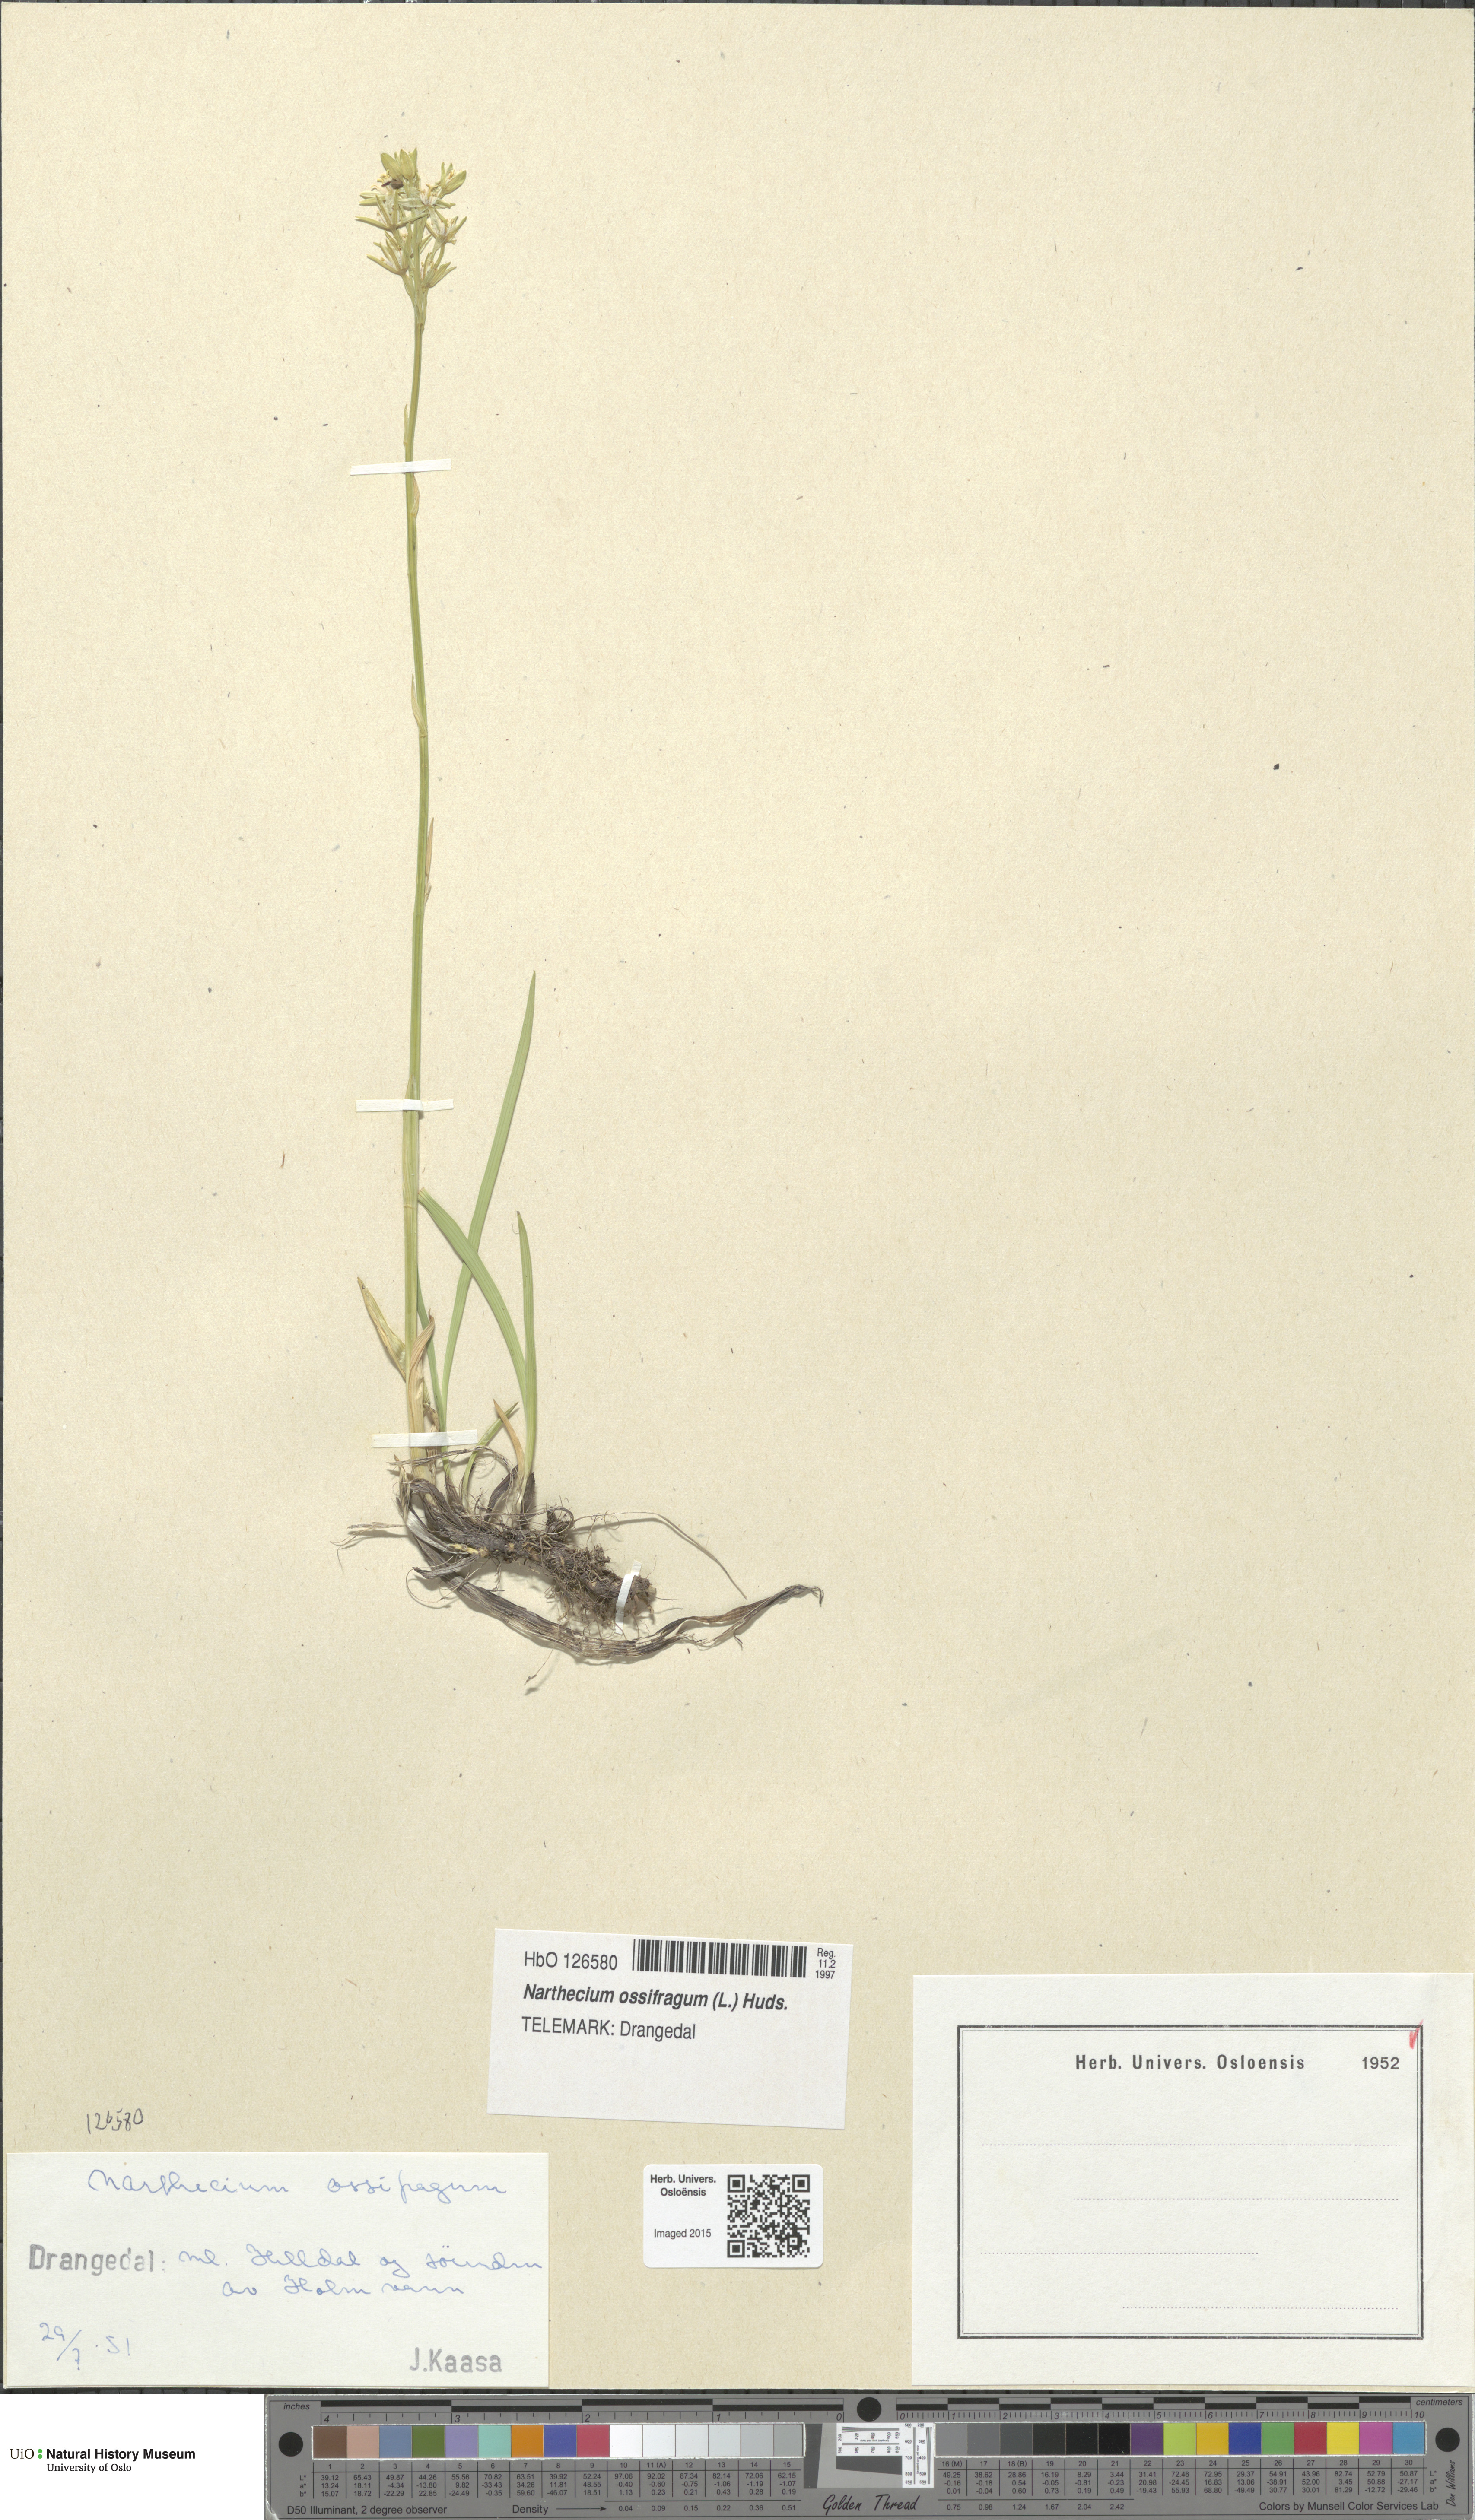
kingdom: Plantae
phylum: Tracheophyta
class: Liliopsida
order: Dioscoreales
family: Nartheciaceae
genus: Narthecium
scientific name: Narthecium ossifragum
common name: Bog asphodel
